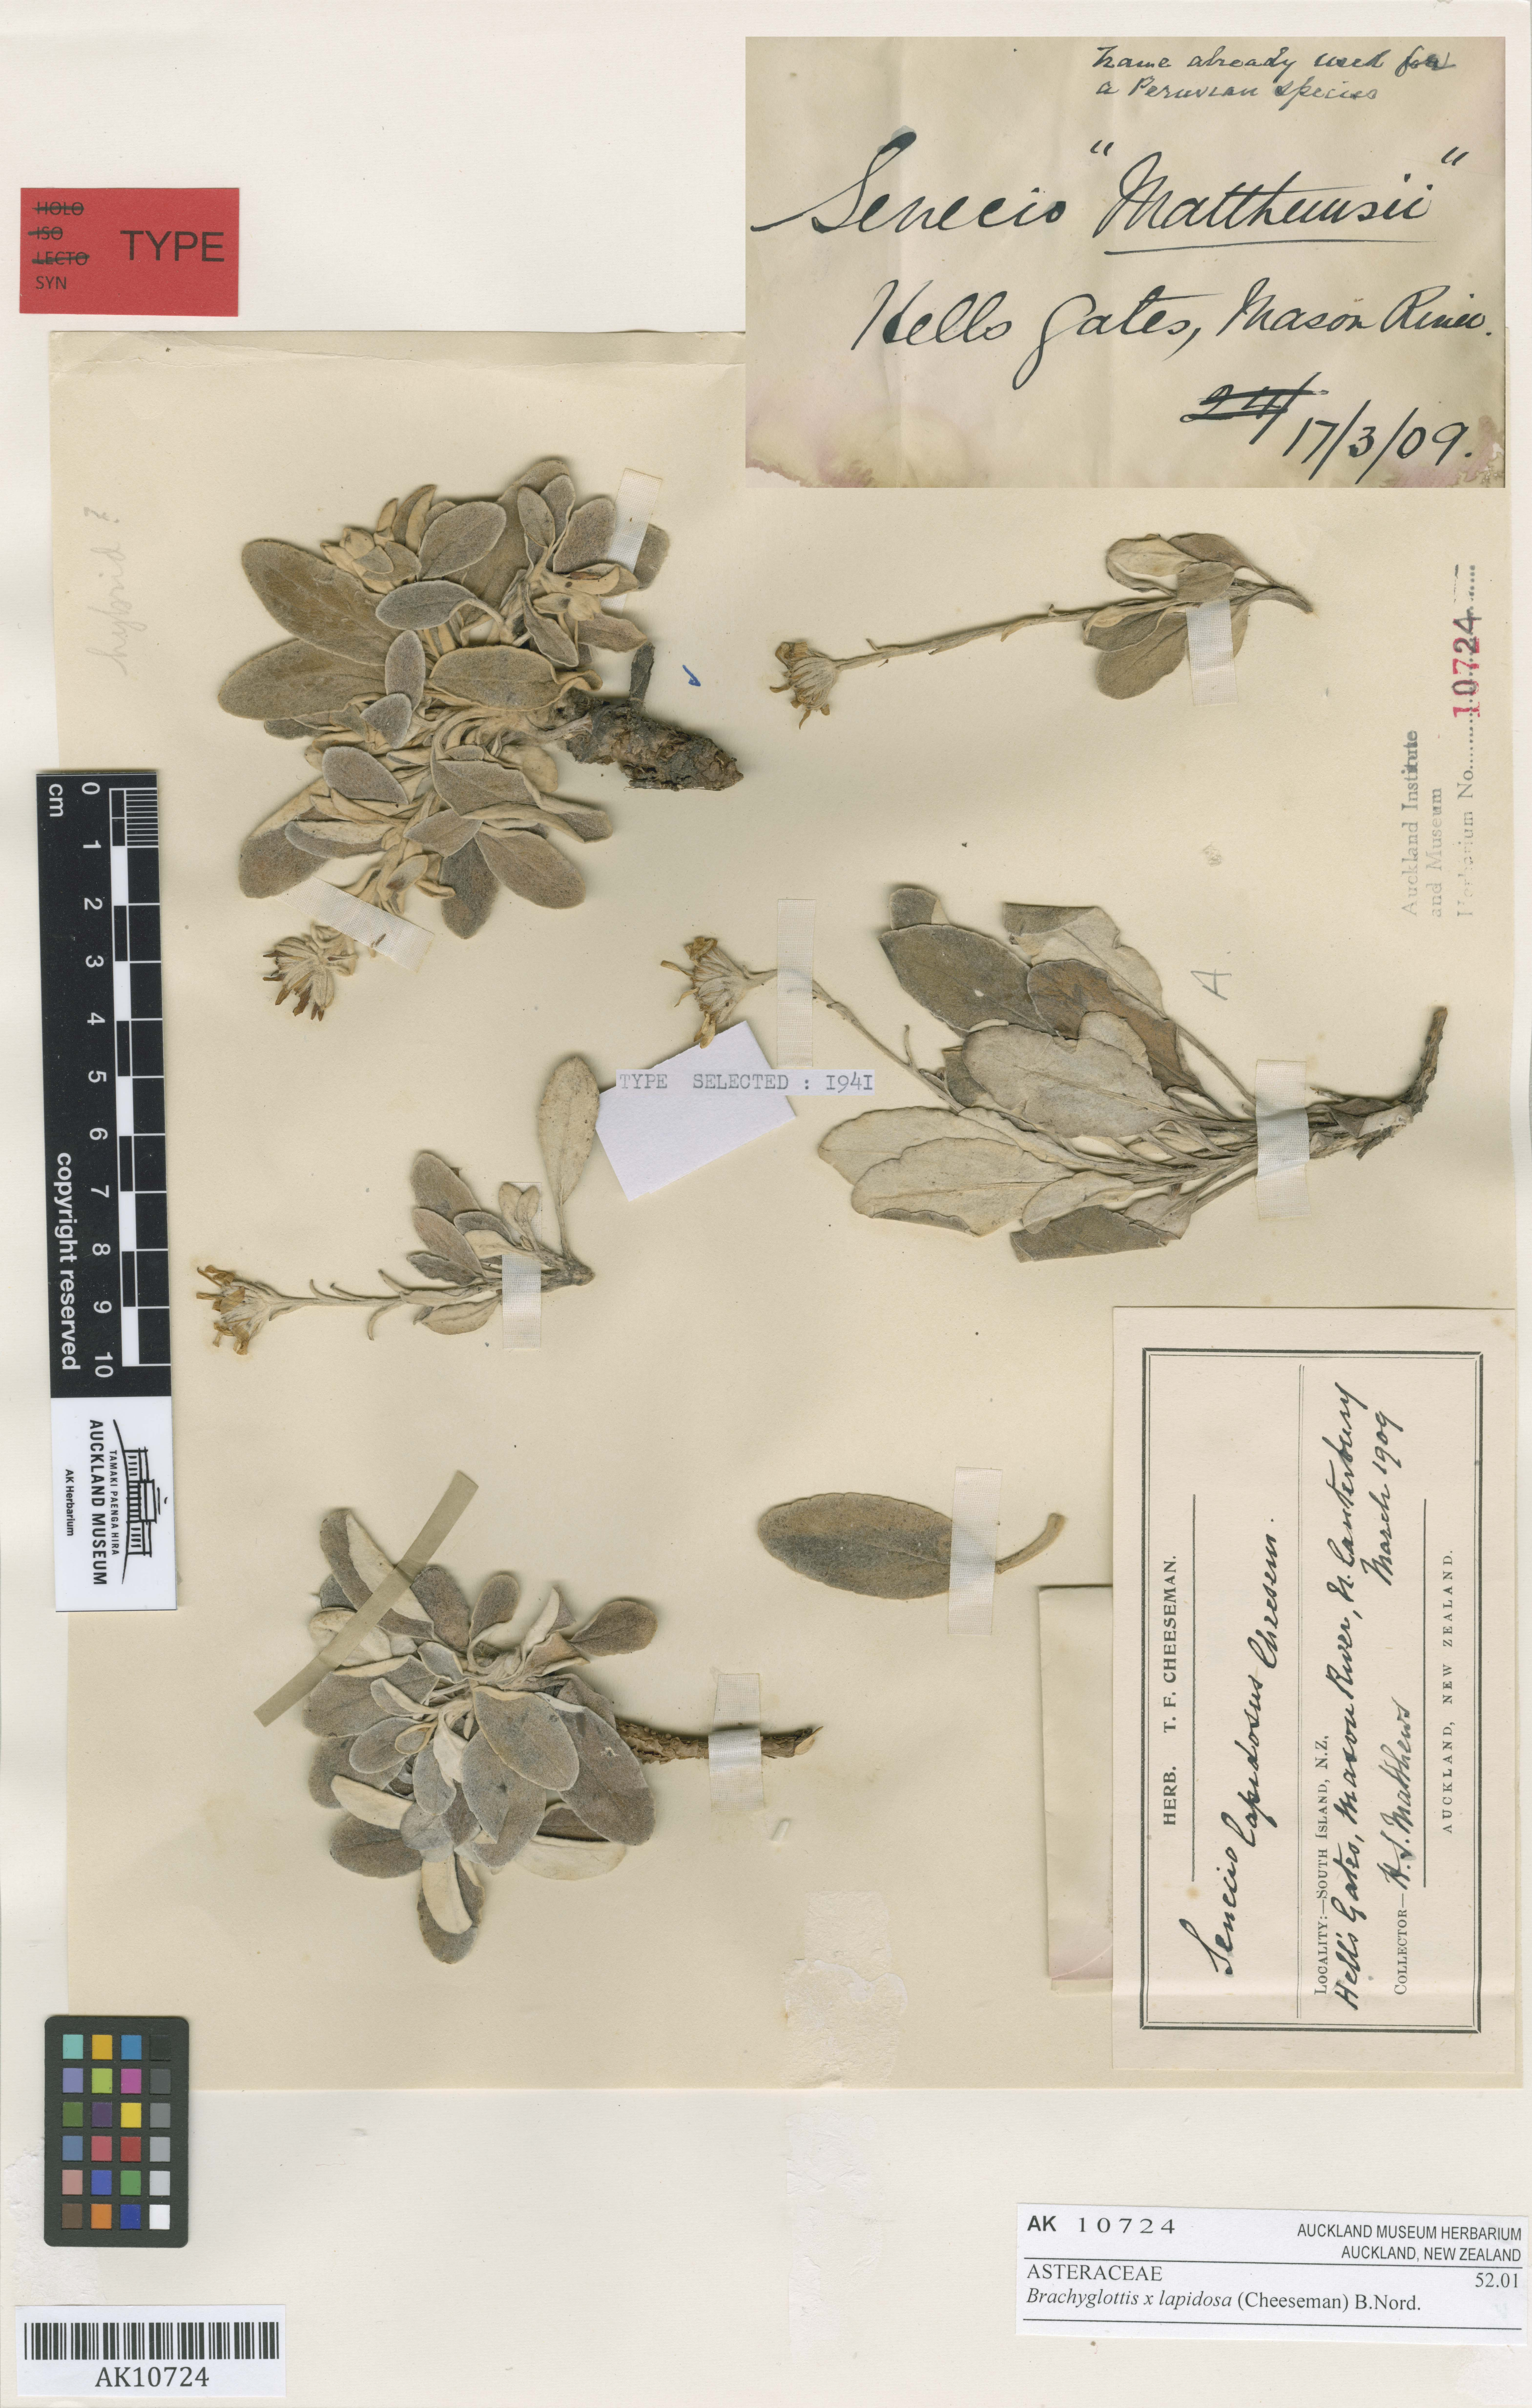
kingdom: Plantae
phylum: Tracheophyta
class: Magnoliopsida
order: Asterales
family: Asteraceae
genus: Brachyglottis
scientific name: Brachyglottis lapidosa
